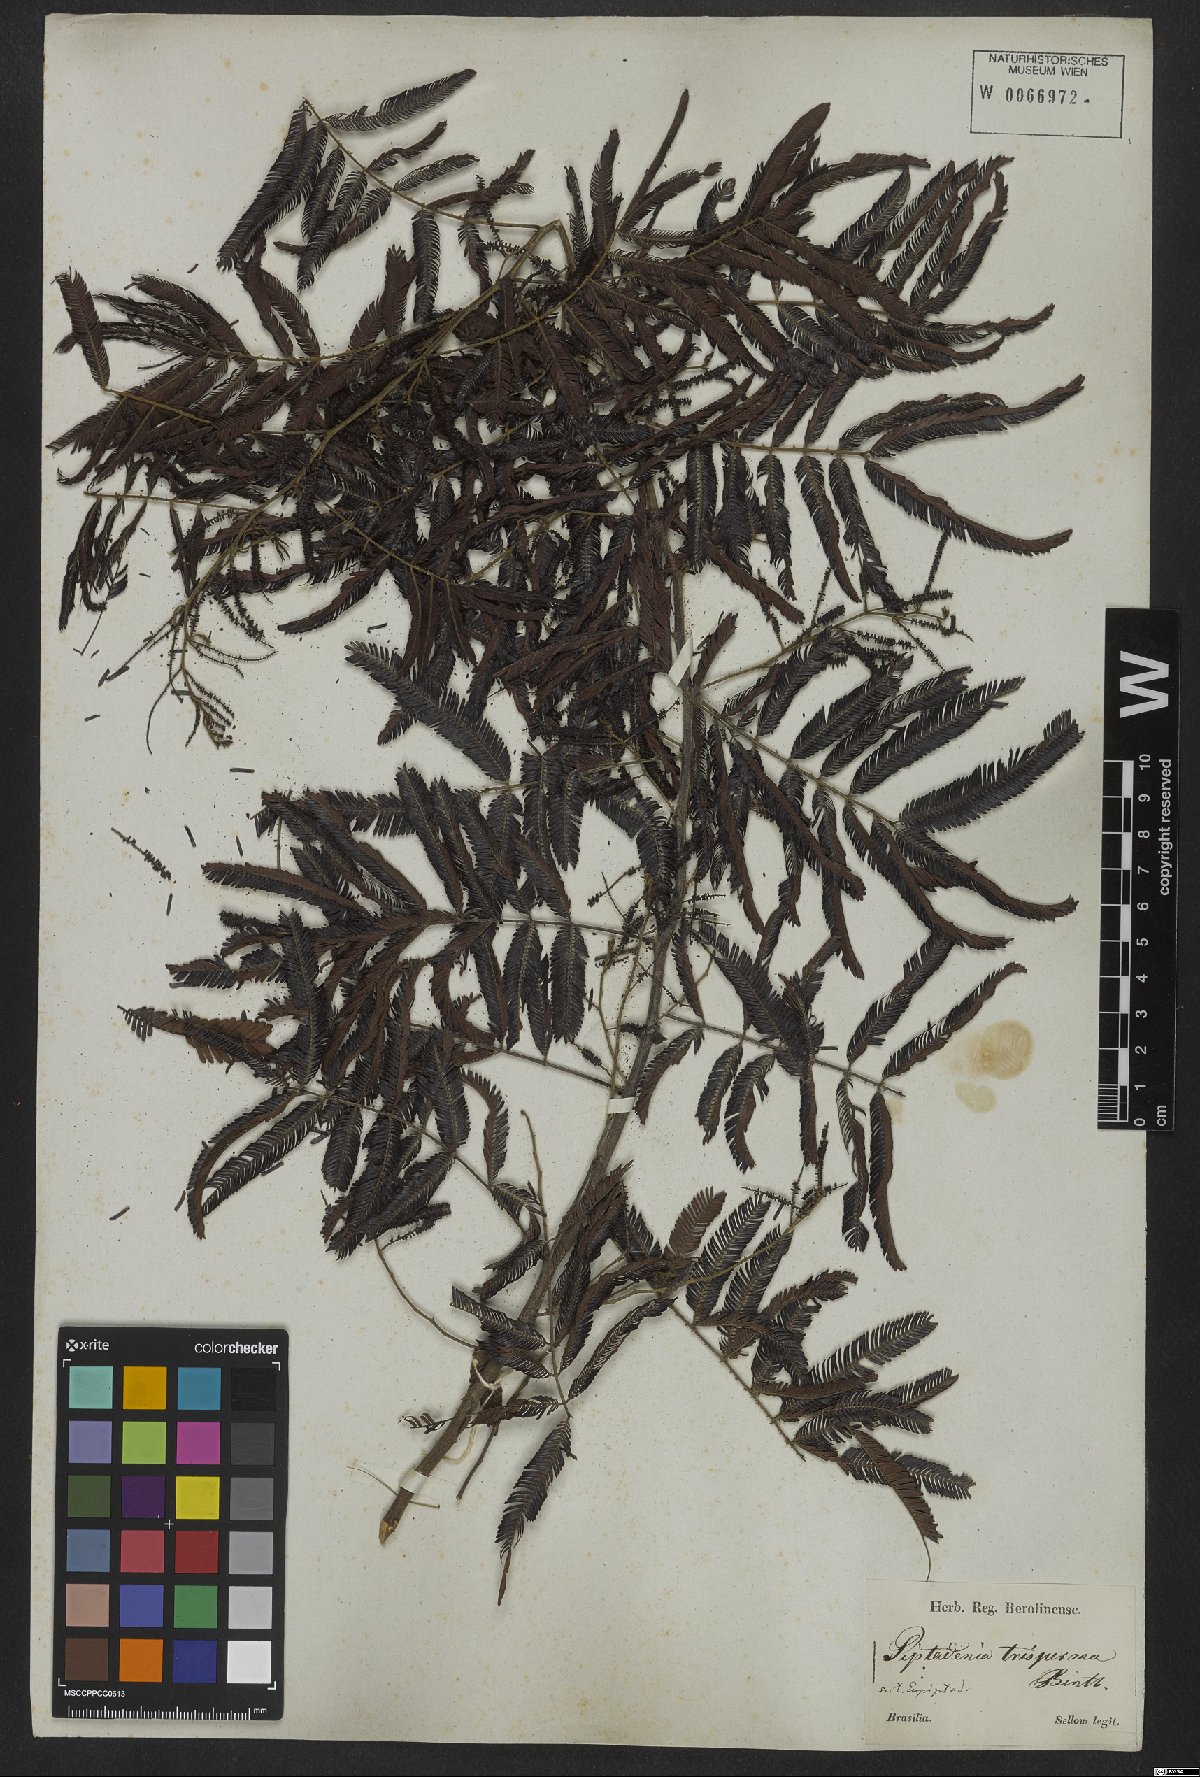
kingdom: Plantae
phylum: Tracheophyta
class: Magnoliopsida
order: Fabales
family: Fabaceae
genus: Piptadenia
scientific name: Piptadenia trisperma
